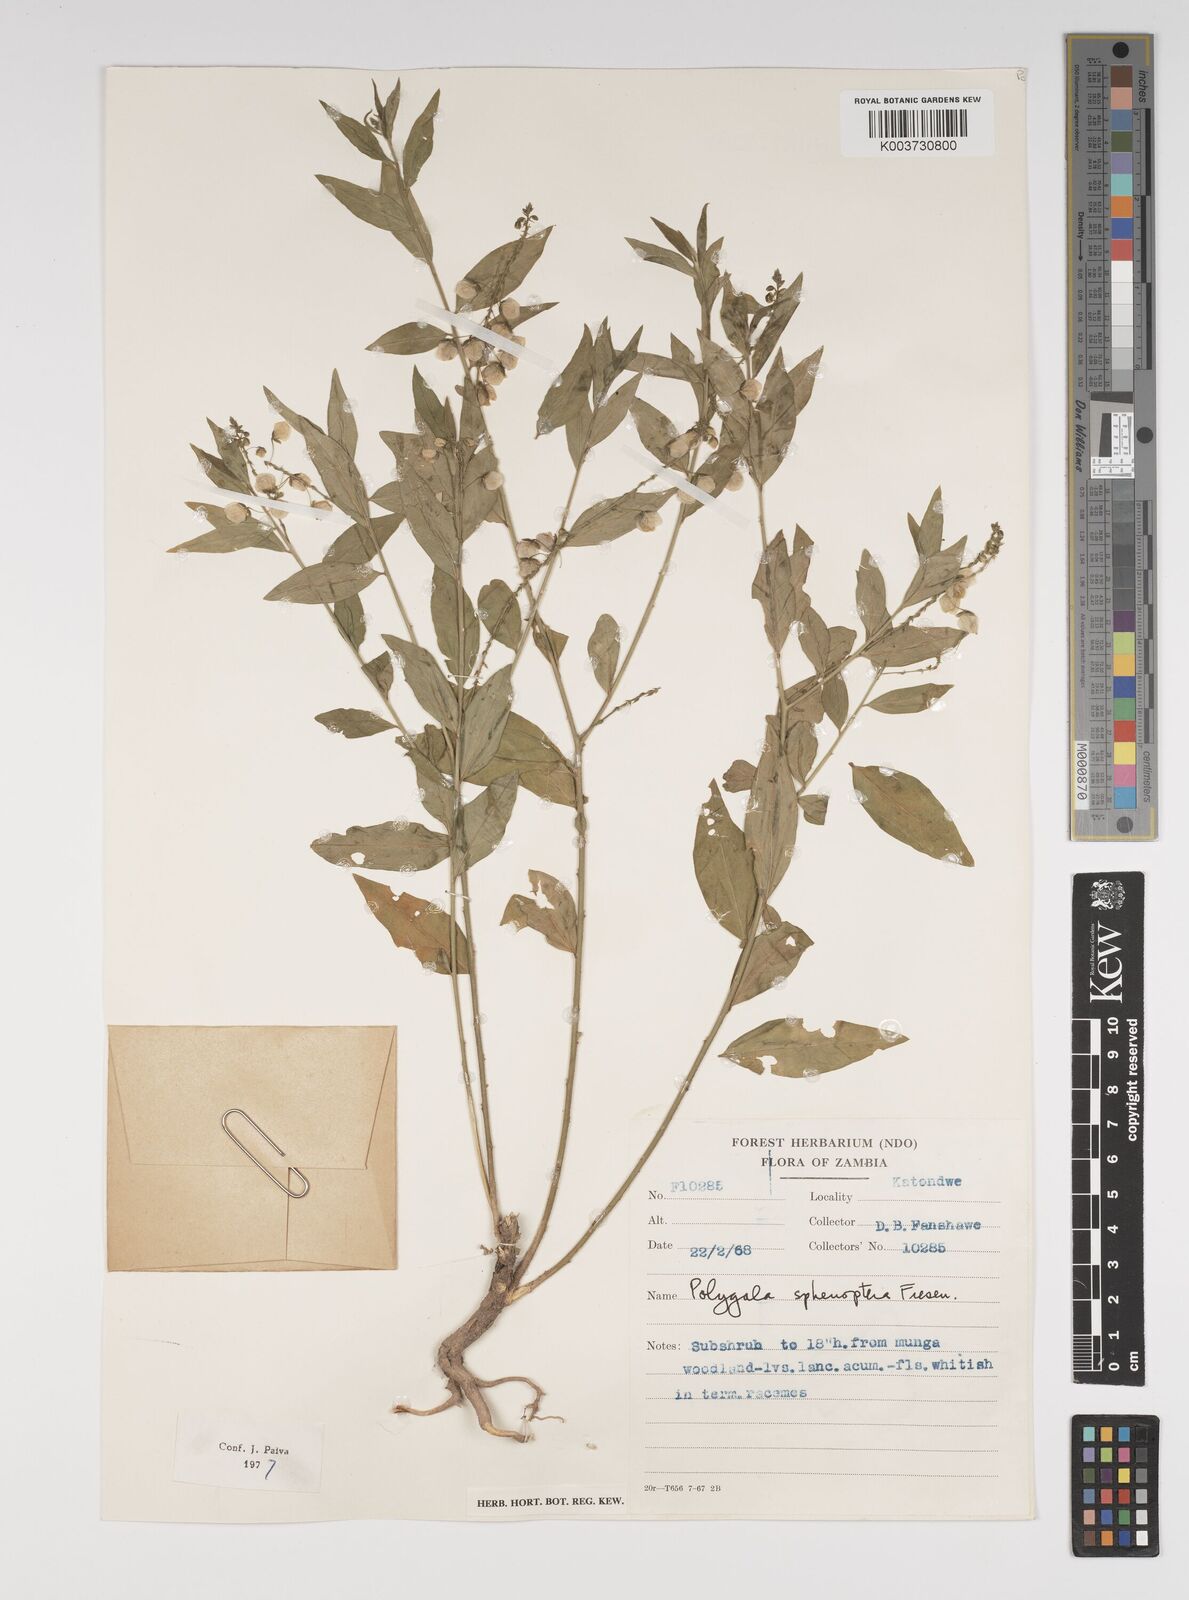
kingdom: Plantae
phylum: Tracheophyta
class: Magnoliopsida
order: Fabales
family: Polygalaceae
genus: Polygala
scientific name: Polygala sphenoptera
